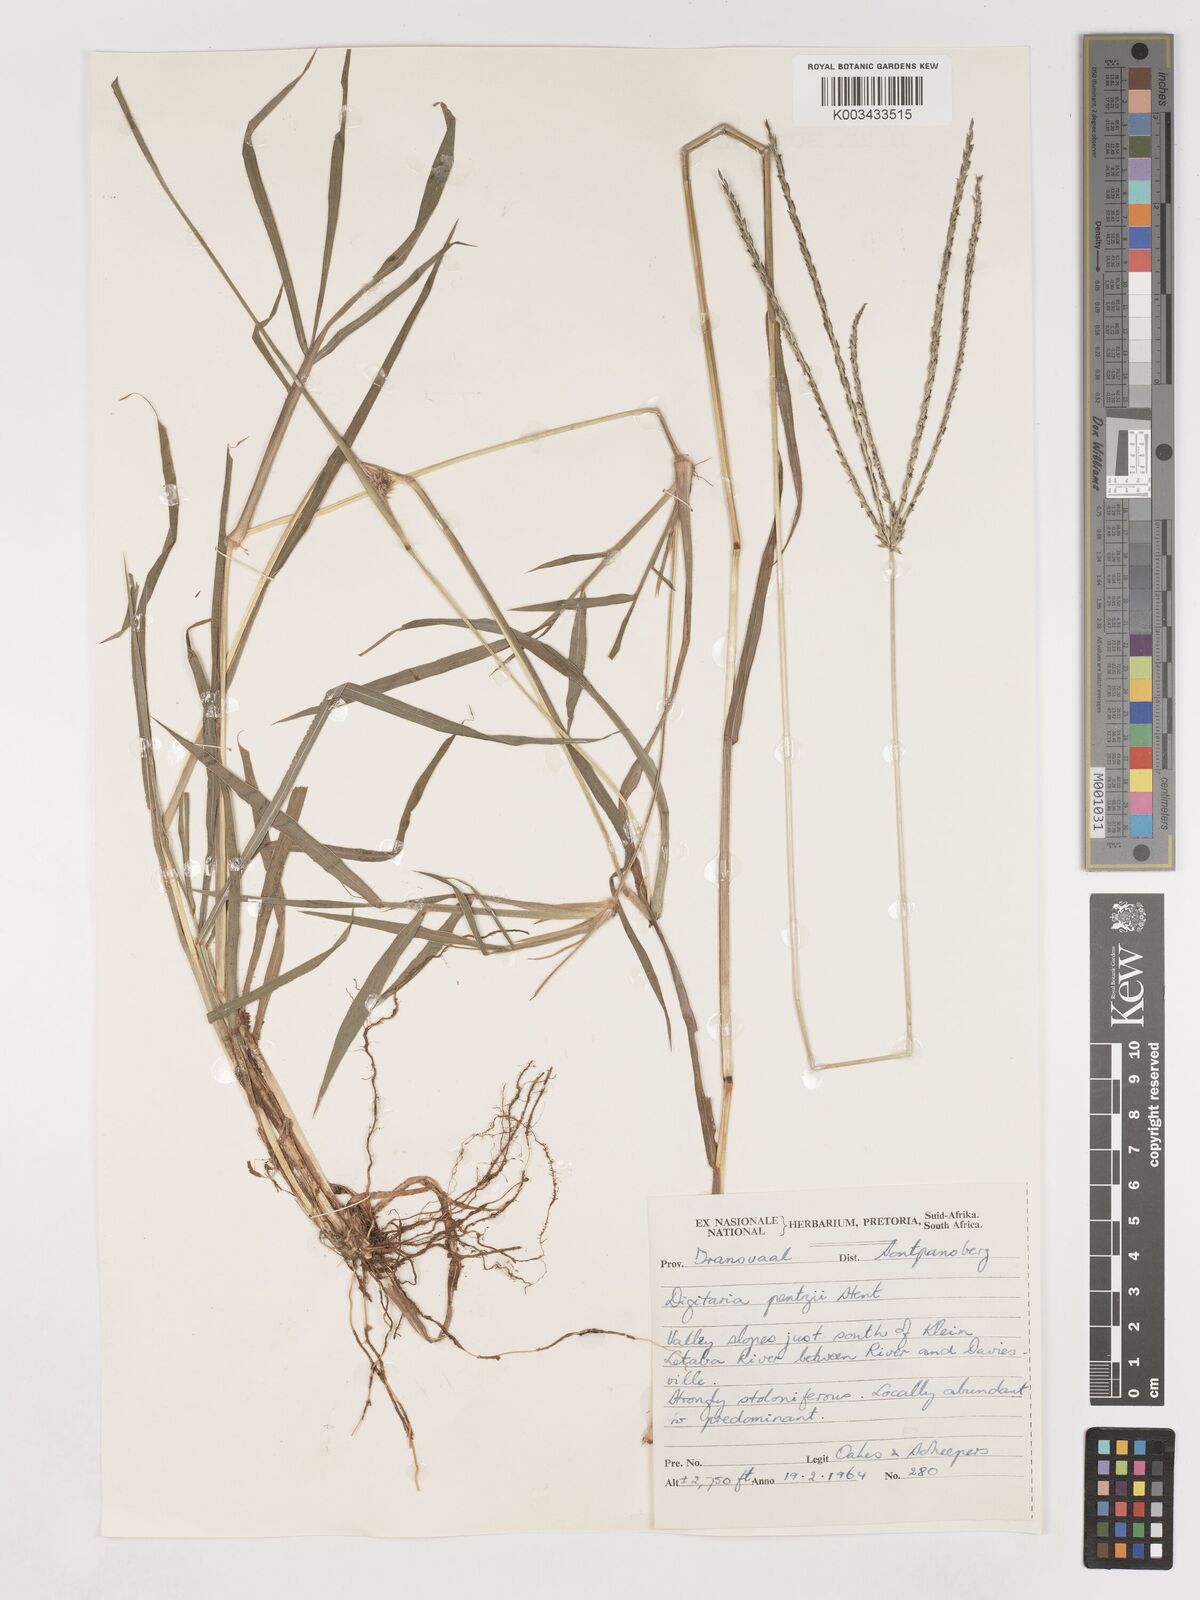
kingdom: Plantae
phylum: Tracheophyta
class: Liliopsida
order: Poales
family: Poaceae
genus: Digitaria
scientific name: Digitaria eriantha
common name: Digitgrass
